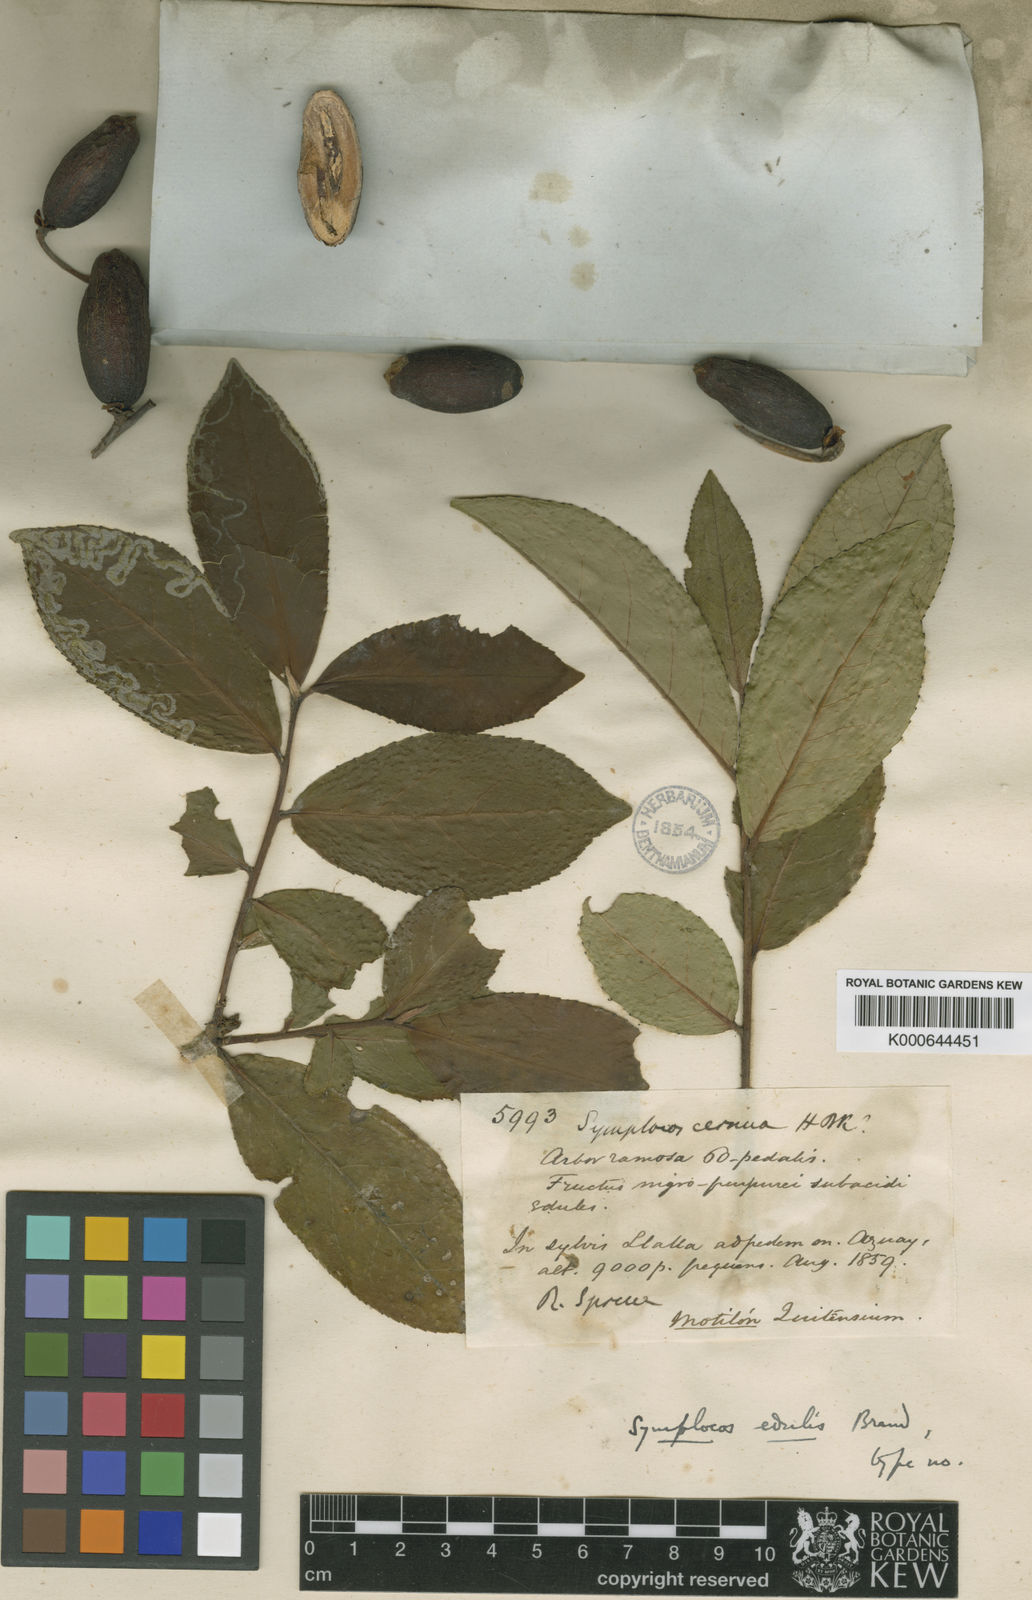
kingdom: Plantae
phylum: Tracheophyta
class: Magnoliopsida
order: Ericales
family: Symplocaceae
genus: Symplocos
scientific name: Symplocos nuda
